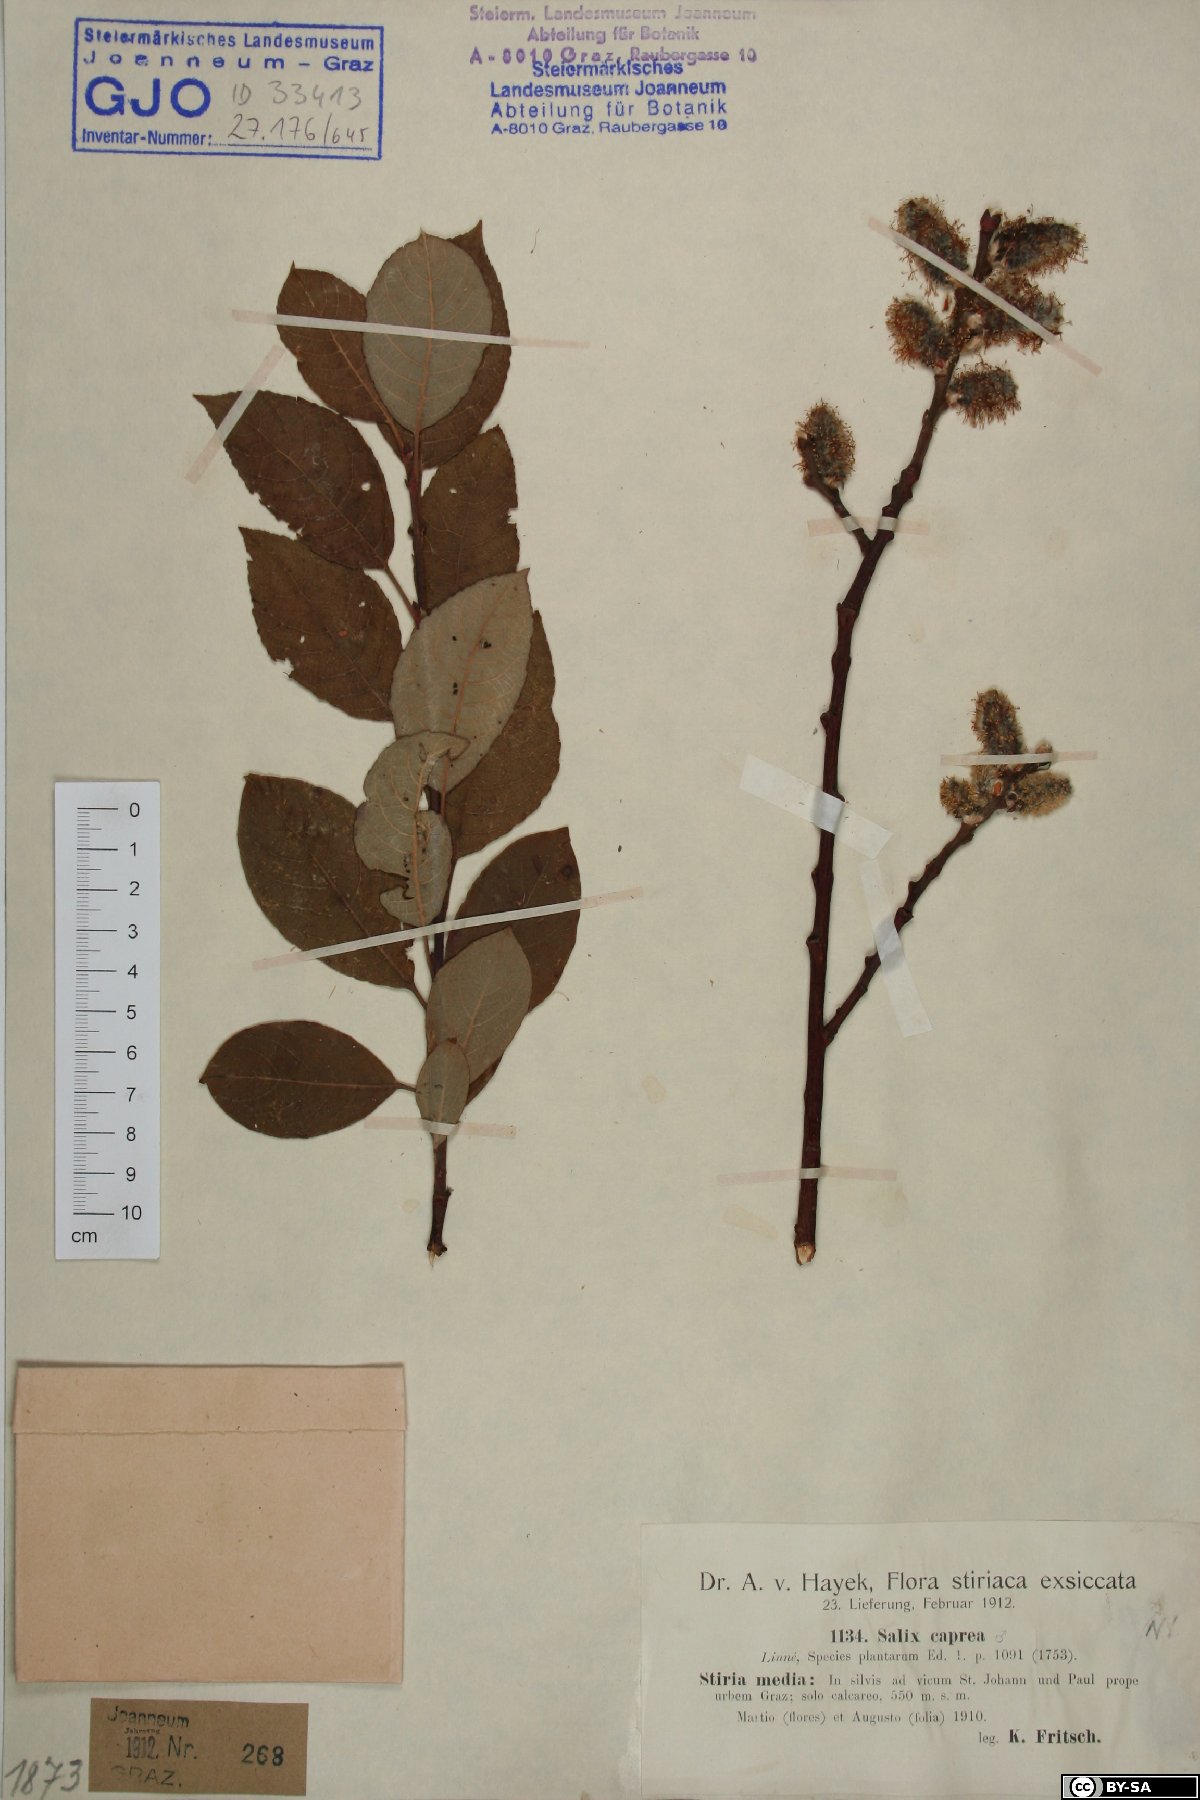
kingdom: Plantae
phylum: Tracheophyta
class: Magnoliopsida
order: Malpighiales
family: Salicaceae
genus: Salix
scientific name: Salix caprea
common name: Goat willow
